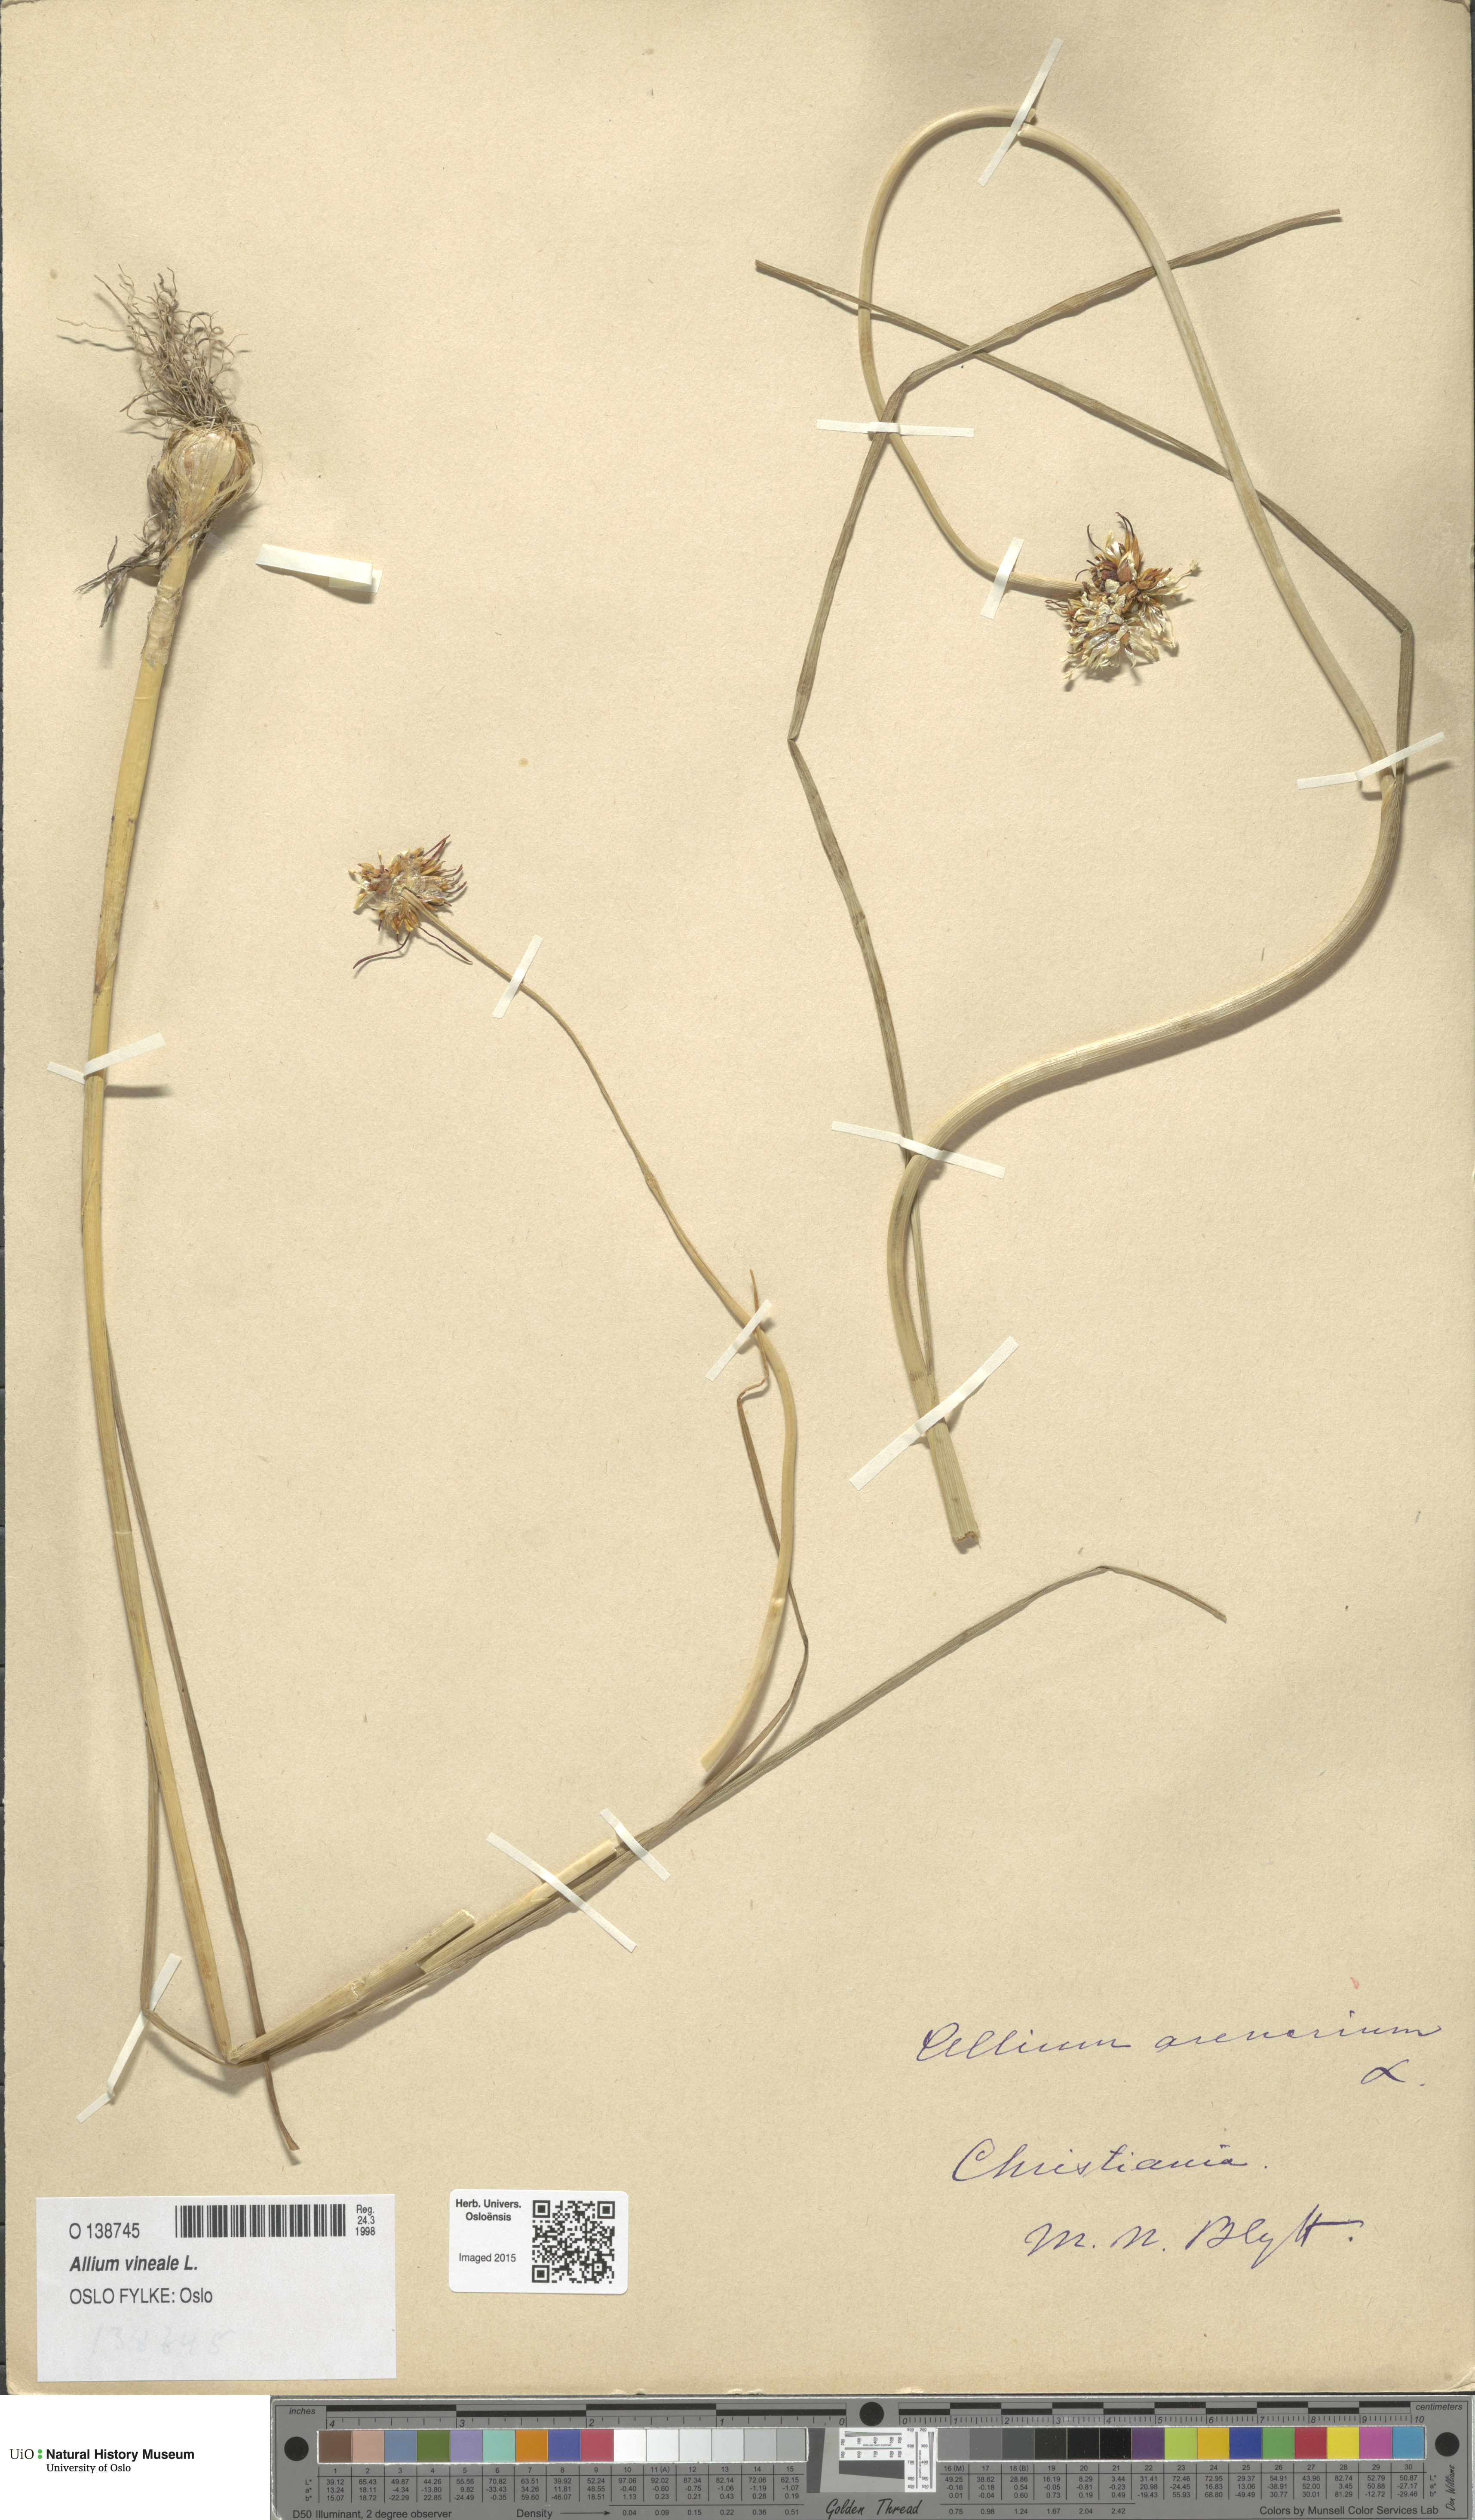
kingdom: Plantae
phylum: Tracheophyta
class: Liliopsida
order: Asparagales
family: Amaryllidaceae
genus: Allium
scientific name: Allium vineale
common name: Crow garlic
